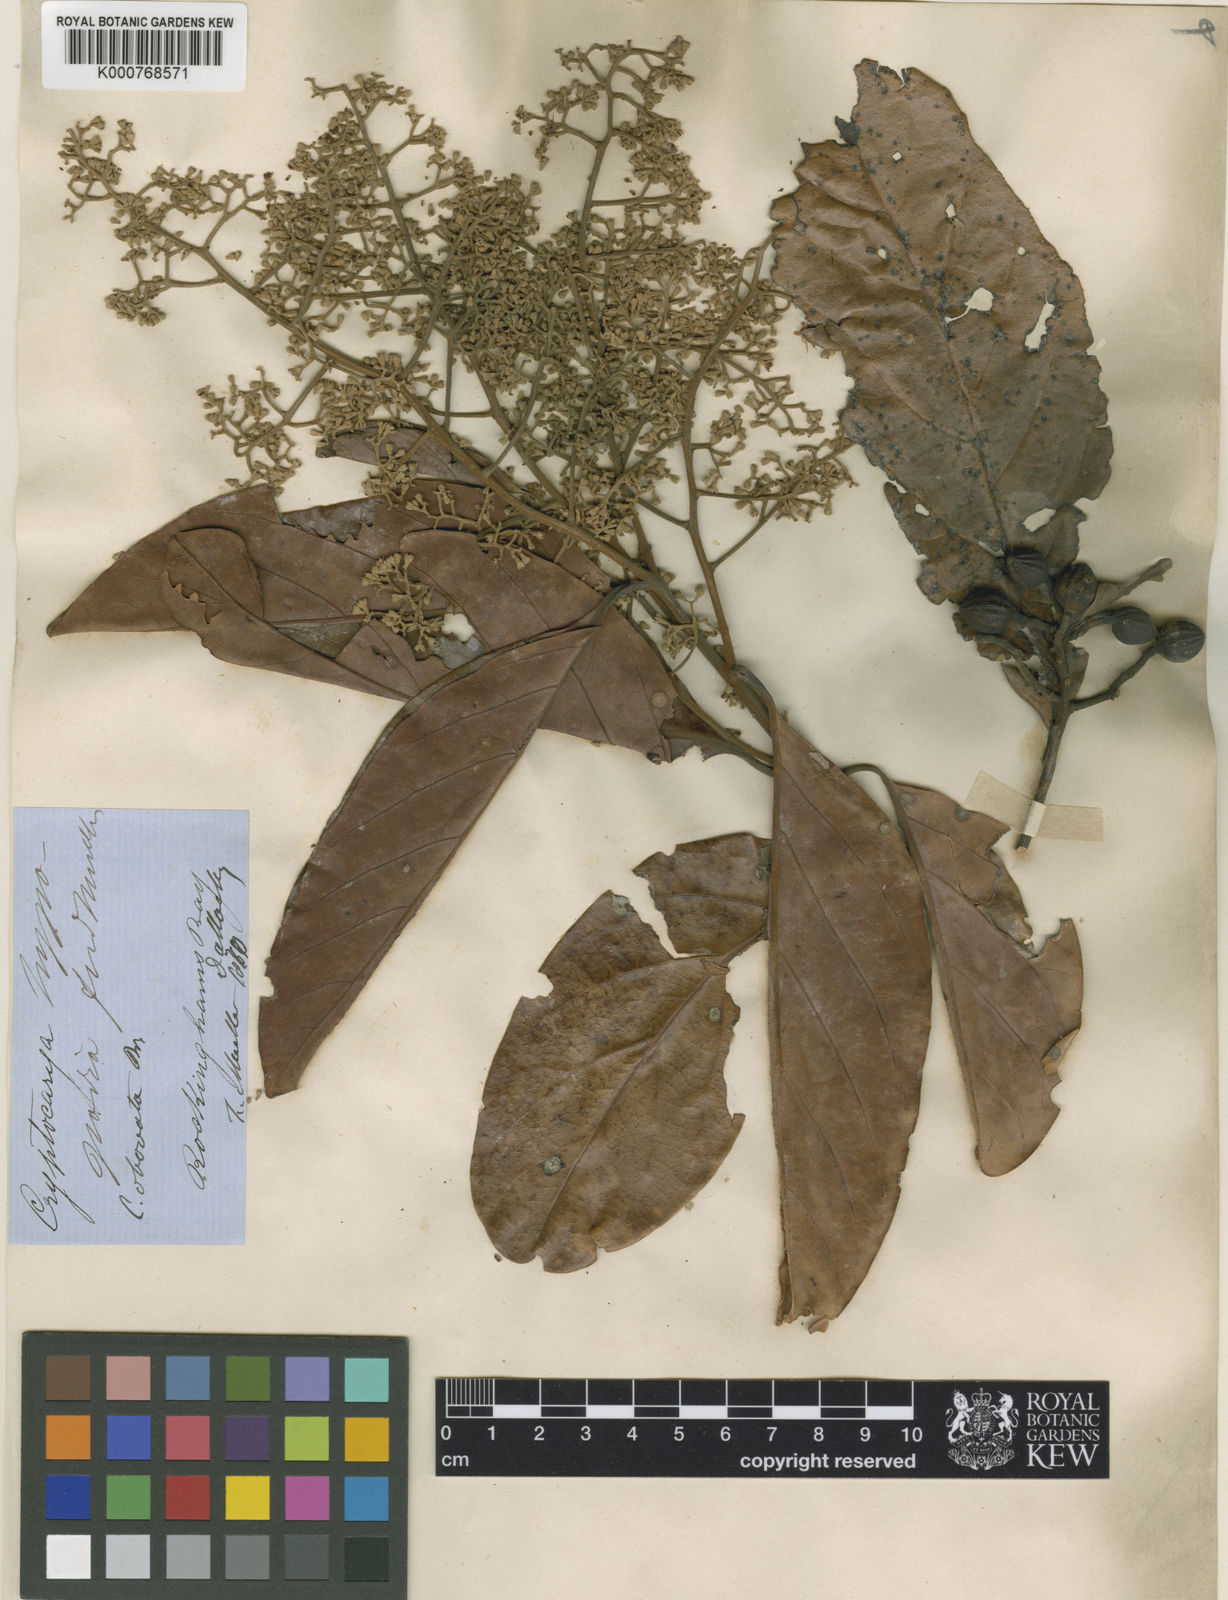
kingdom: Plantae
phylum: Tracheophyta
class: Magnoliopsida
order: Laurales
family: Lauraceae
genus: Cryptocarya
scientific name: Cryptocarya hypospodia
